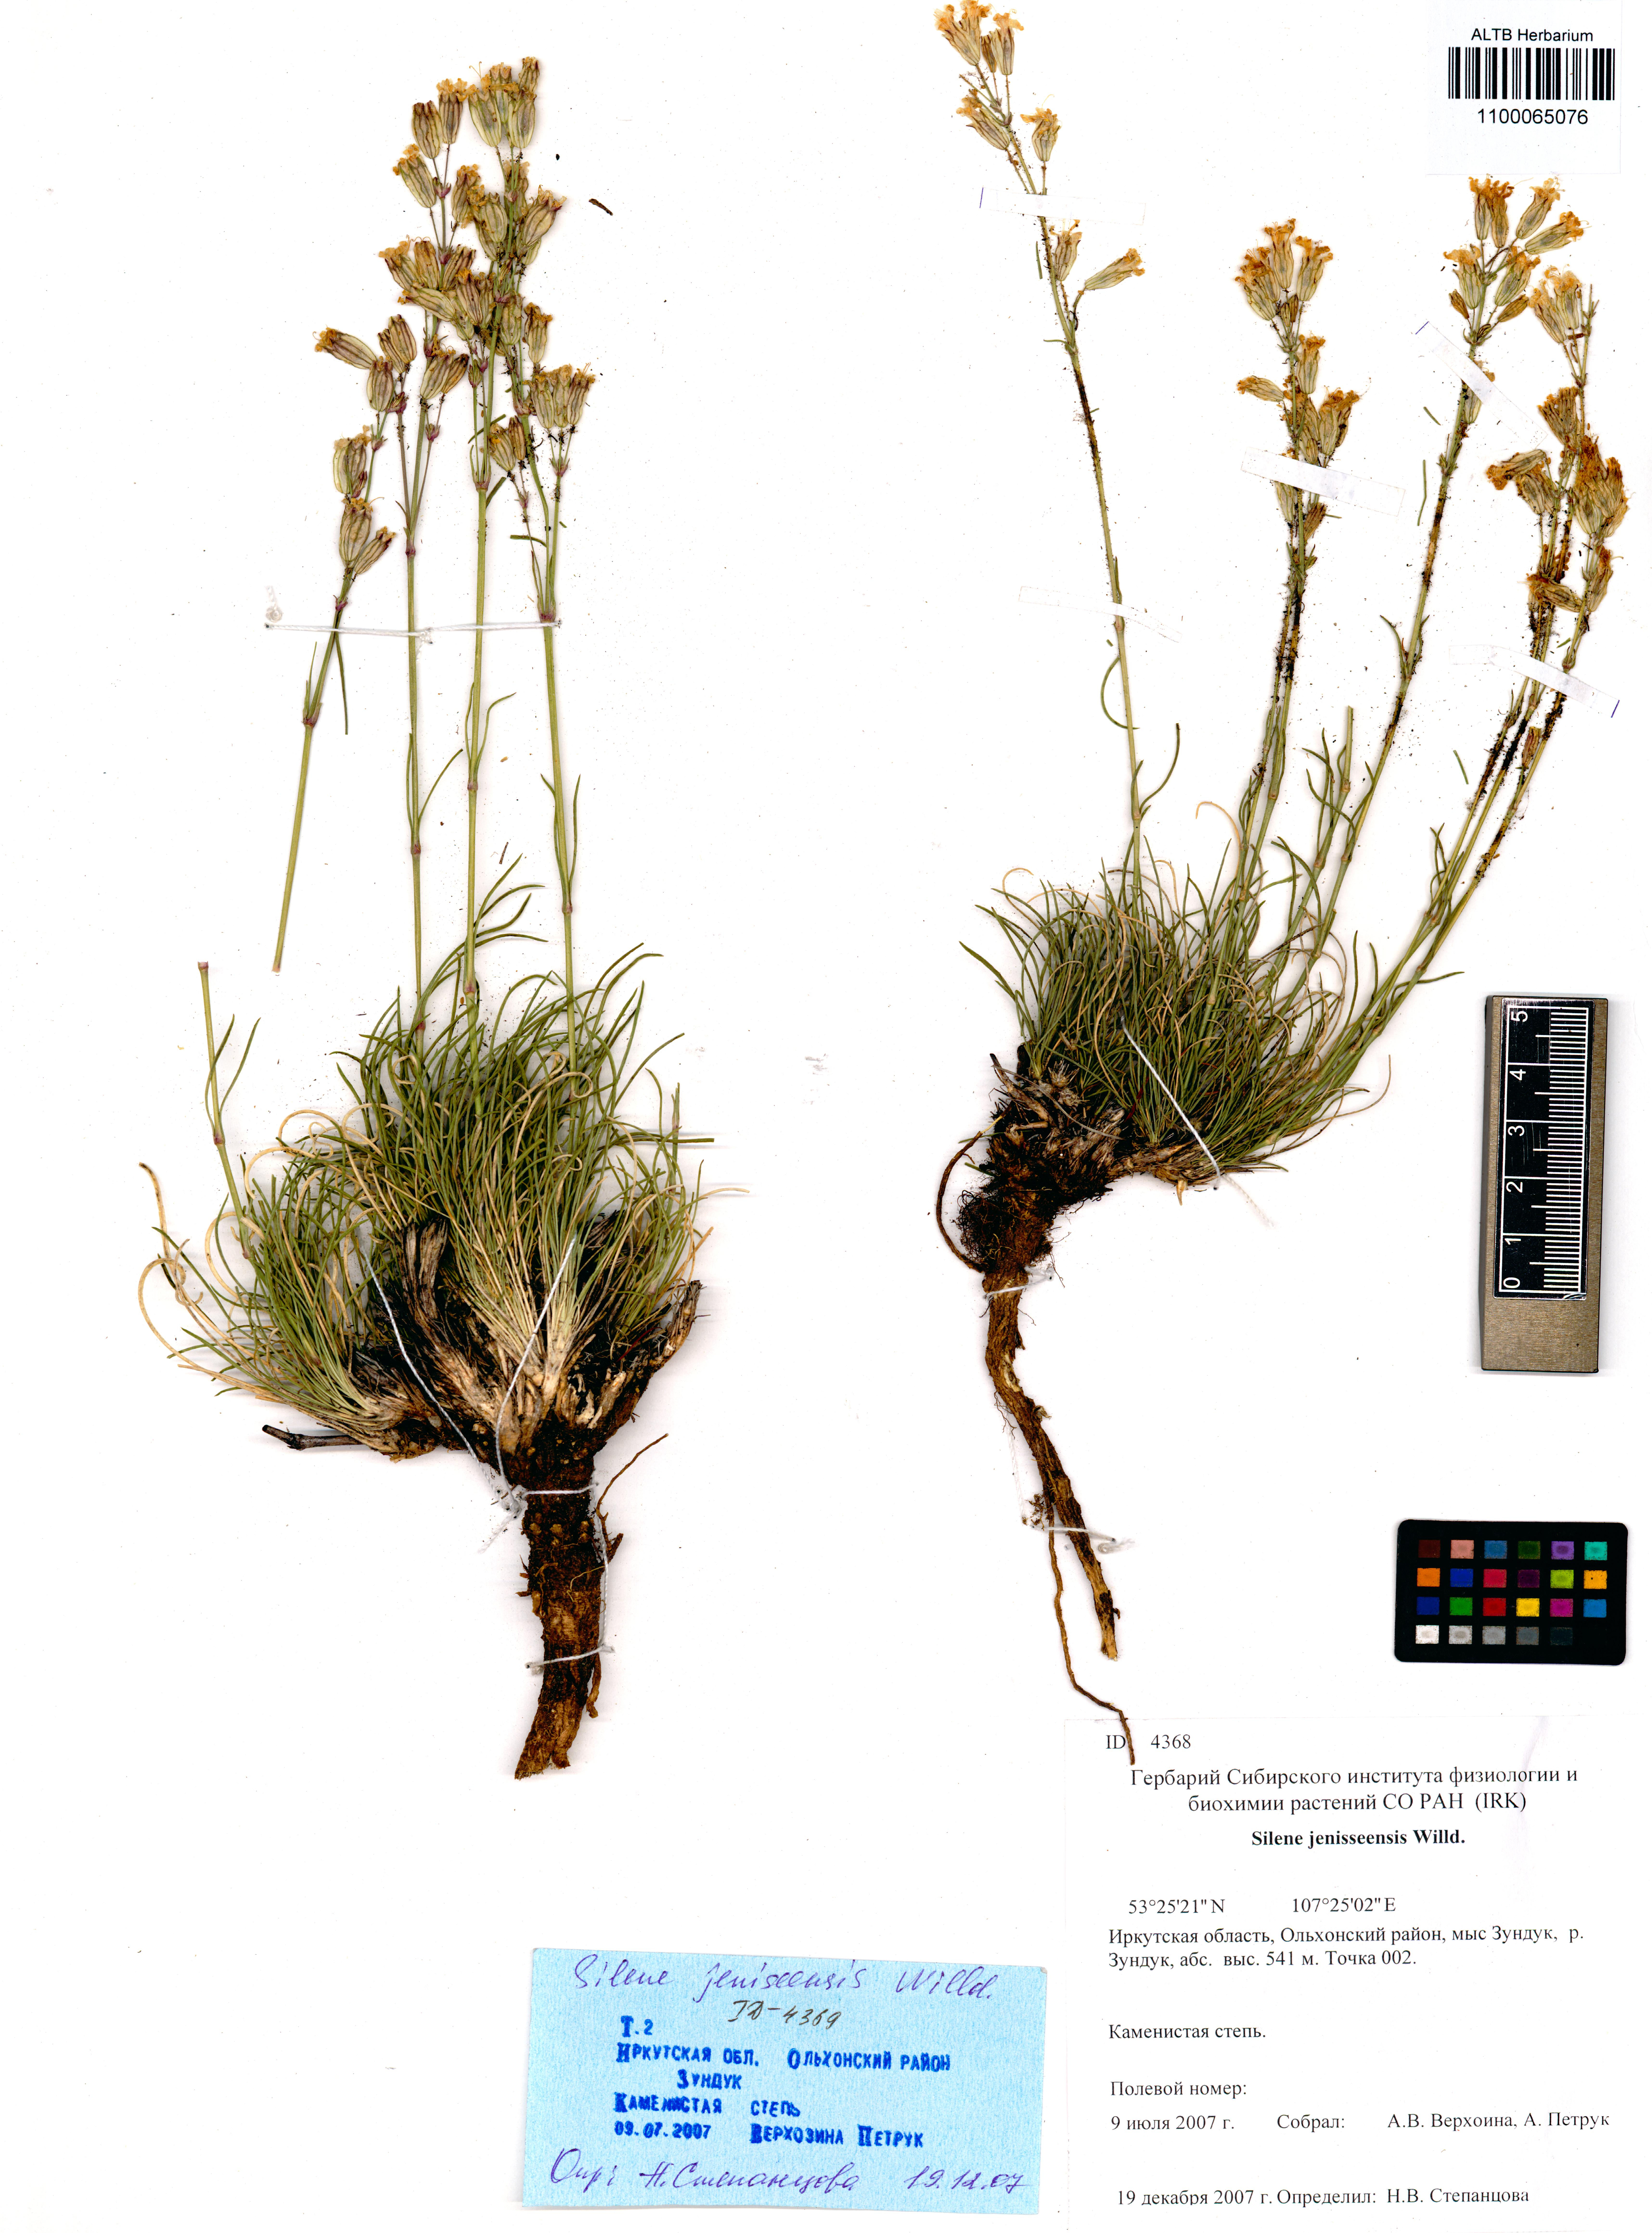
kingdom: Plantae
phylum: Tracheophyta
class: Magnoliopsida
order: Caryophyllales
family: Caryophyllaceae
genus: Silene
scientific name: Silene jeniseensis
